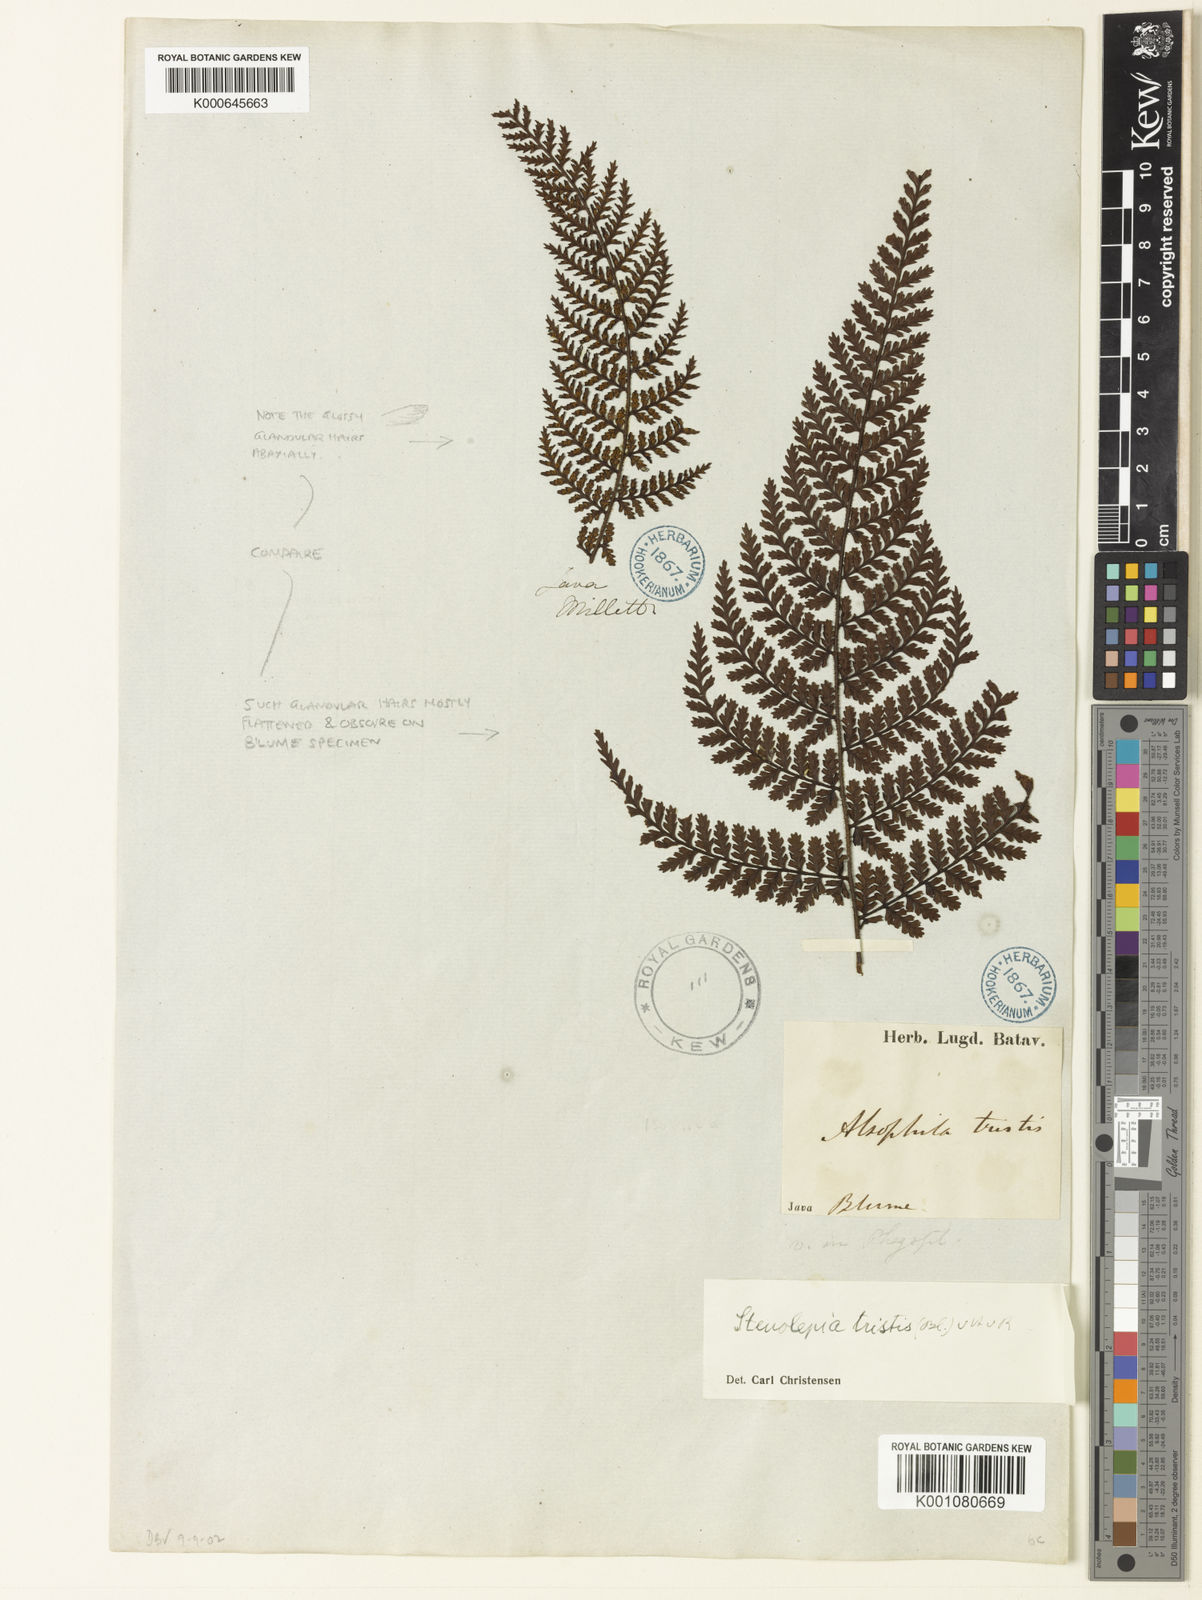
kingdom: Plantae
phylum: Tracheophyta
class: Polypodiopsida
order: Polypodiales
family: Dryopteridaceae
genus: Dryopteris
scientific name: Dryopteris alpina
